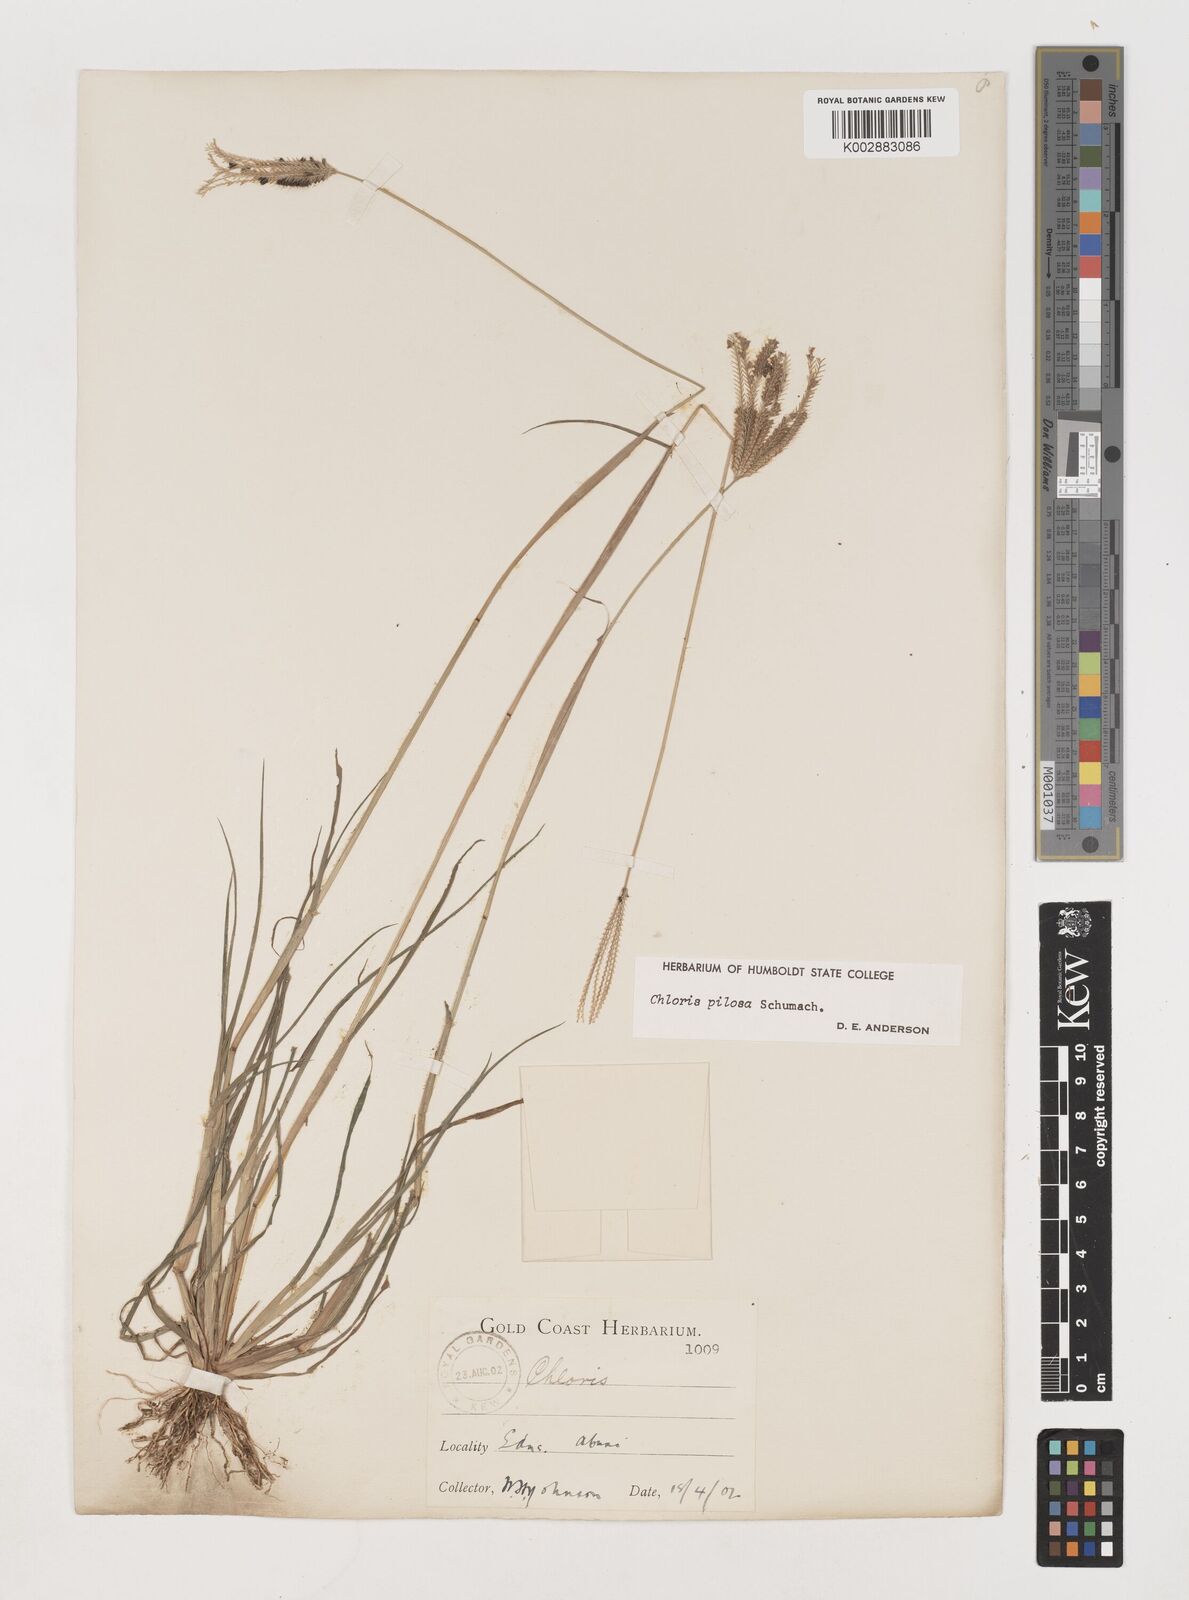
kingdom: Plantae
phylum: Tracheophyta
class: Liliopsida
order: Poales
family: Poaceae
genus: Chloris
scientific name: Chloris pilosa
